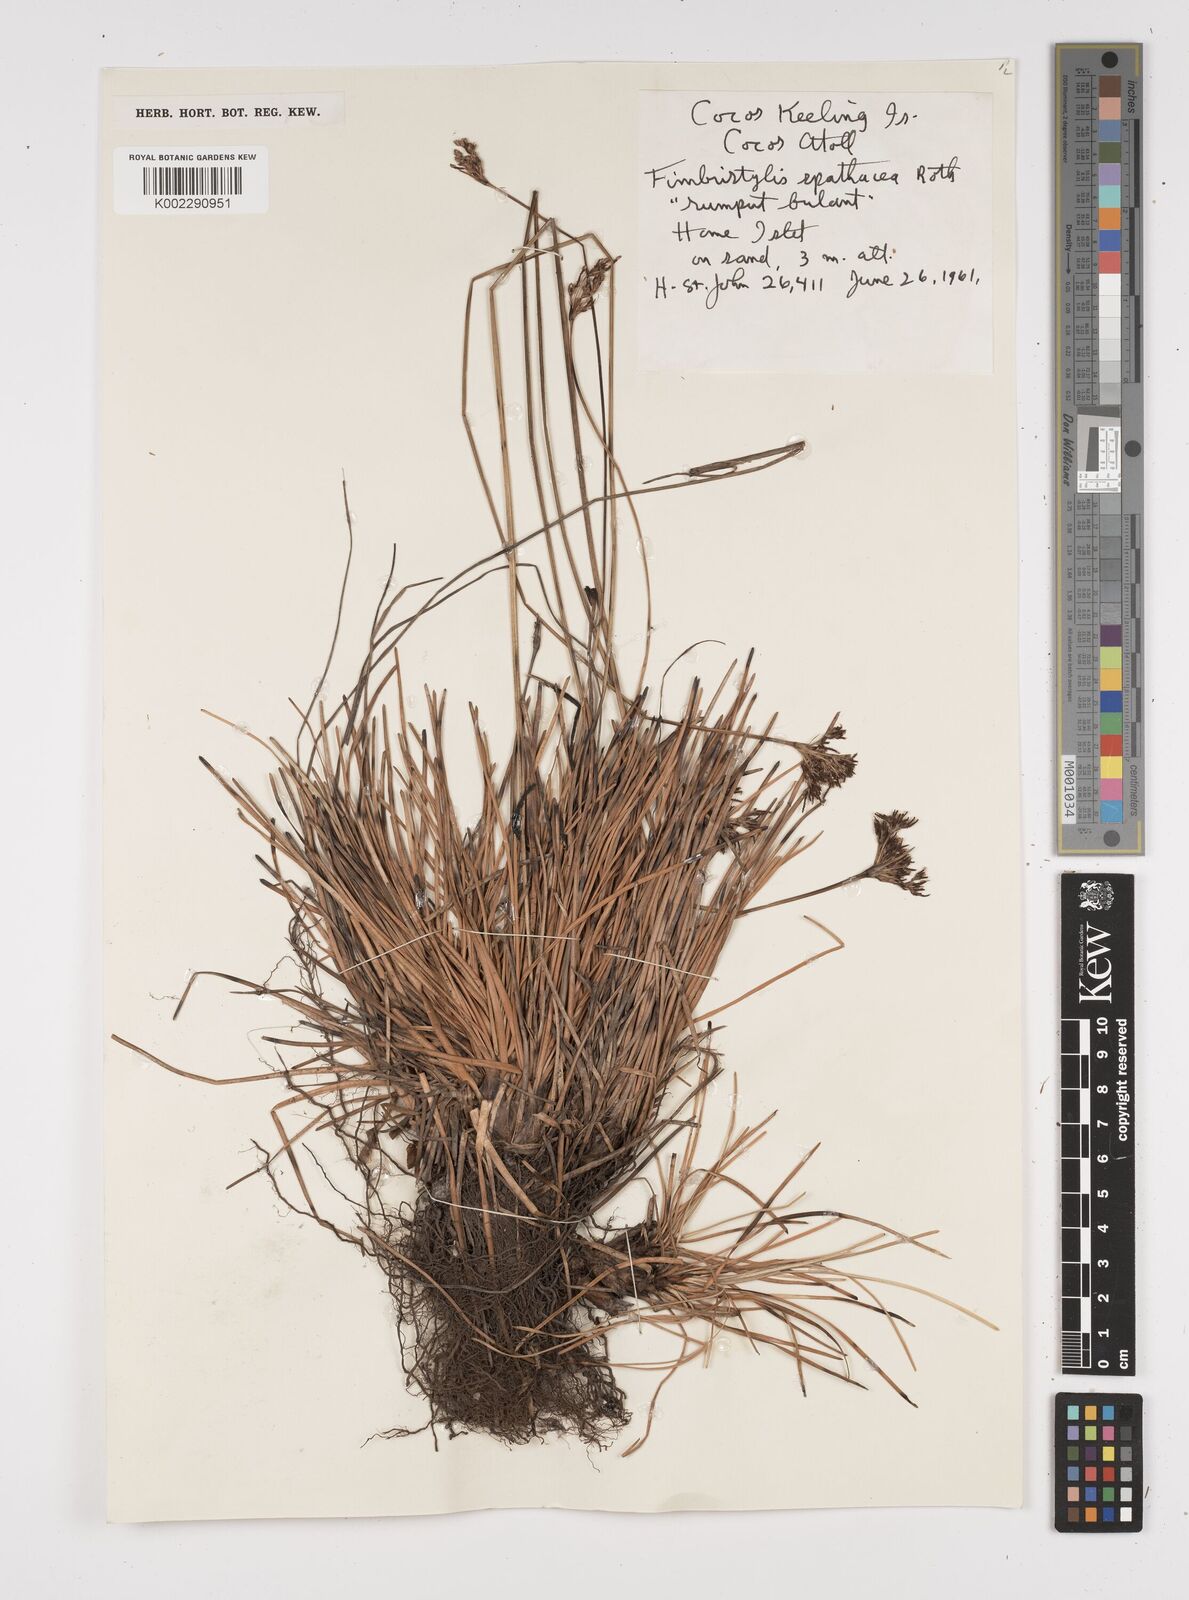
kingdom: Plantae
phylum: Tracheophyta
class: Liliopsida
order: Poales
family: Cyperaceae
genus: Fimbristylis
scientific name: Fimbristylis cymosa
